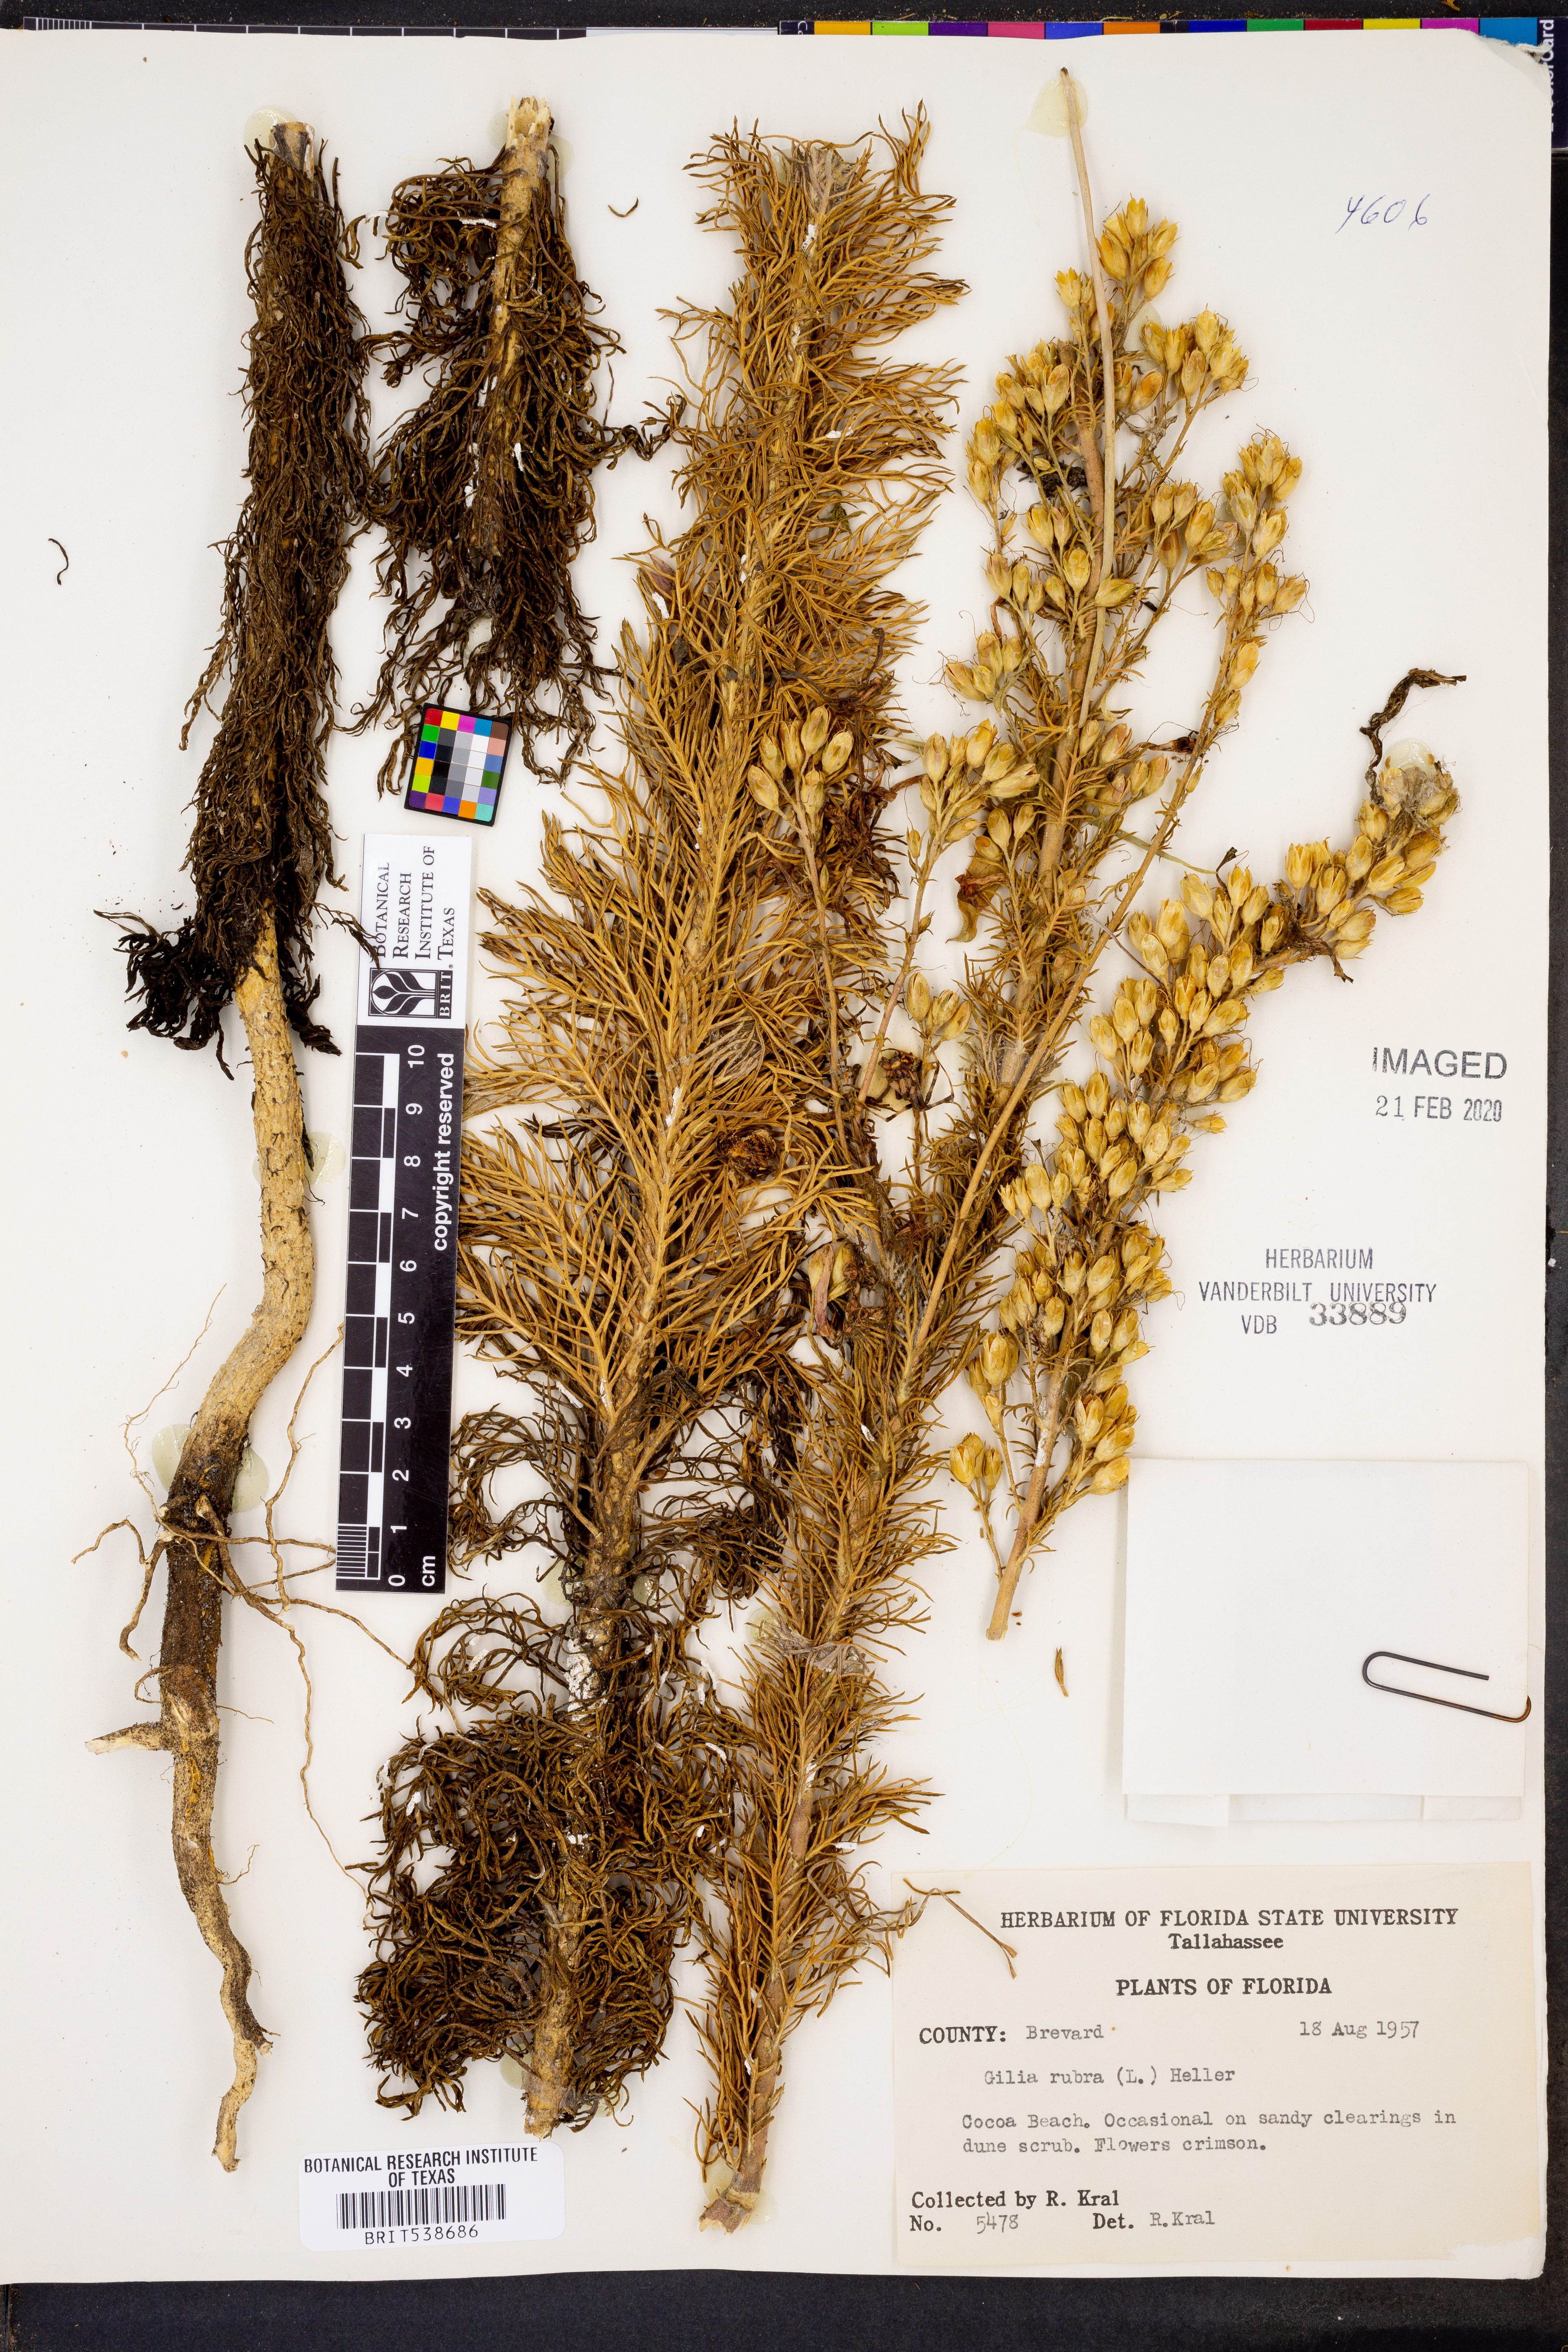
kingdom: Plantae
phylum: Tracheophyta
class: Magnoliopsida
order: Ericales
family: Polemoniaceae
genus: Ipomopsis
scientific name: Ipomopsis rubra
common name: Skyrocket
